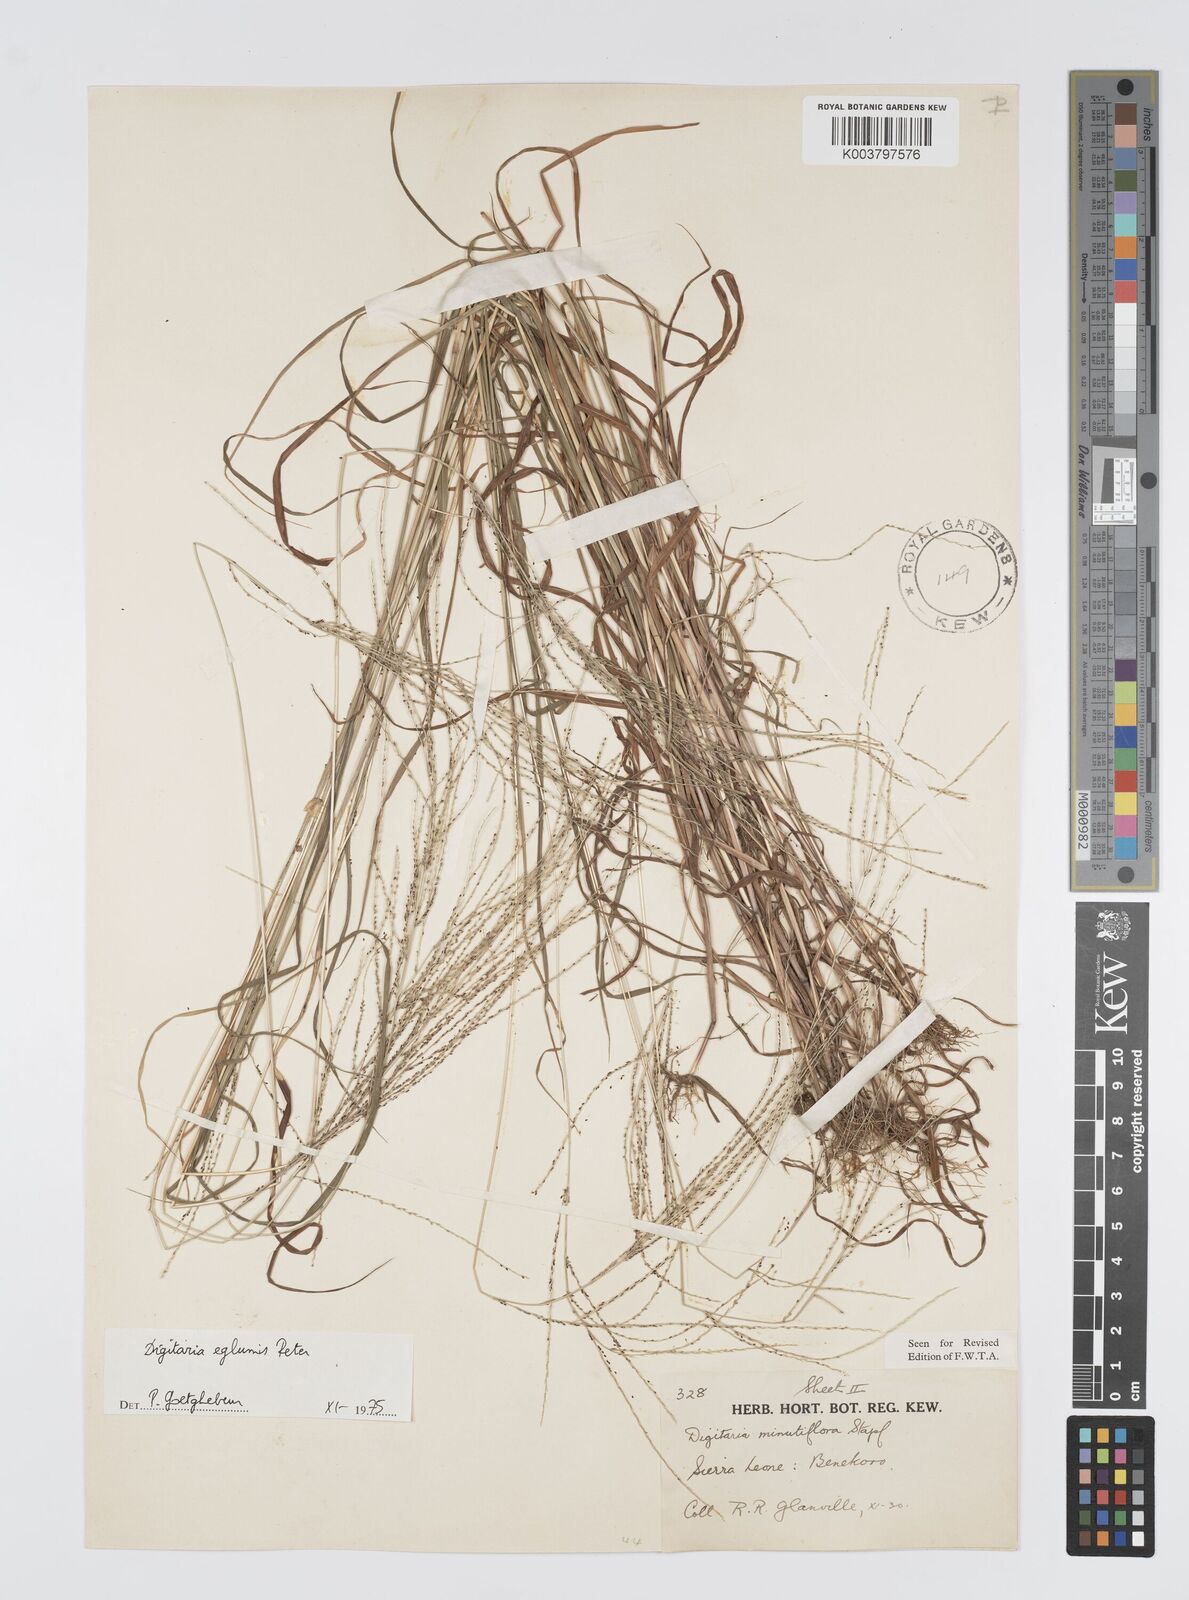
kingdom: Plantae
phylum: Tracheophyta
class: Liliopsida
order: Poales
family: Poaceae
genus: Digitaria
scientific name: Digitaria pseudodiagonalis
